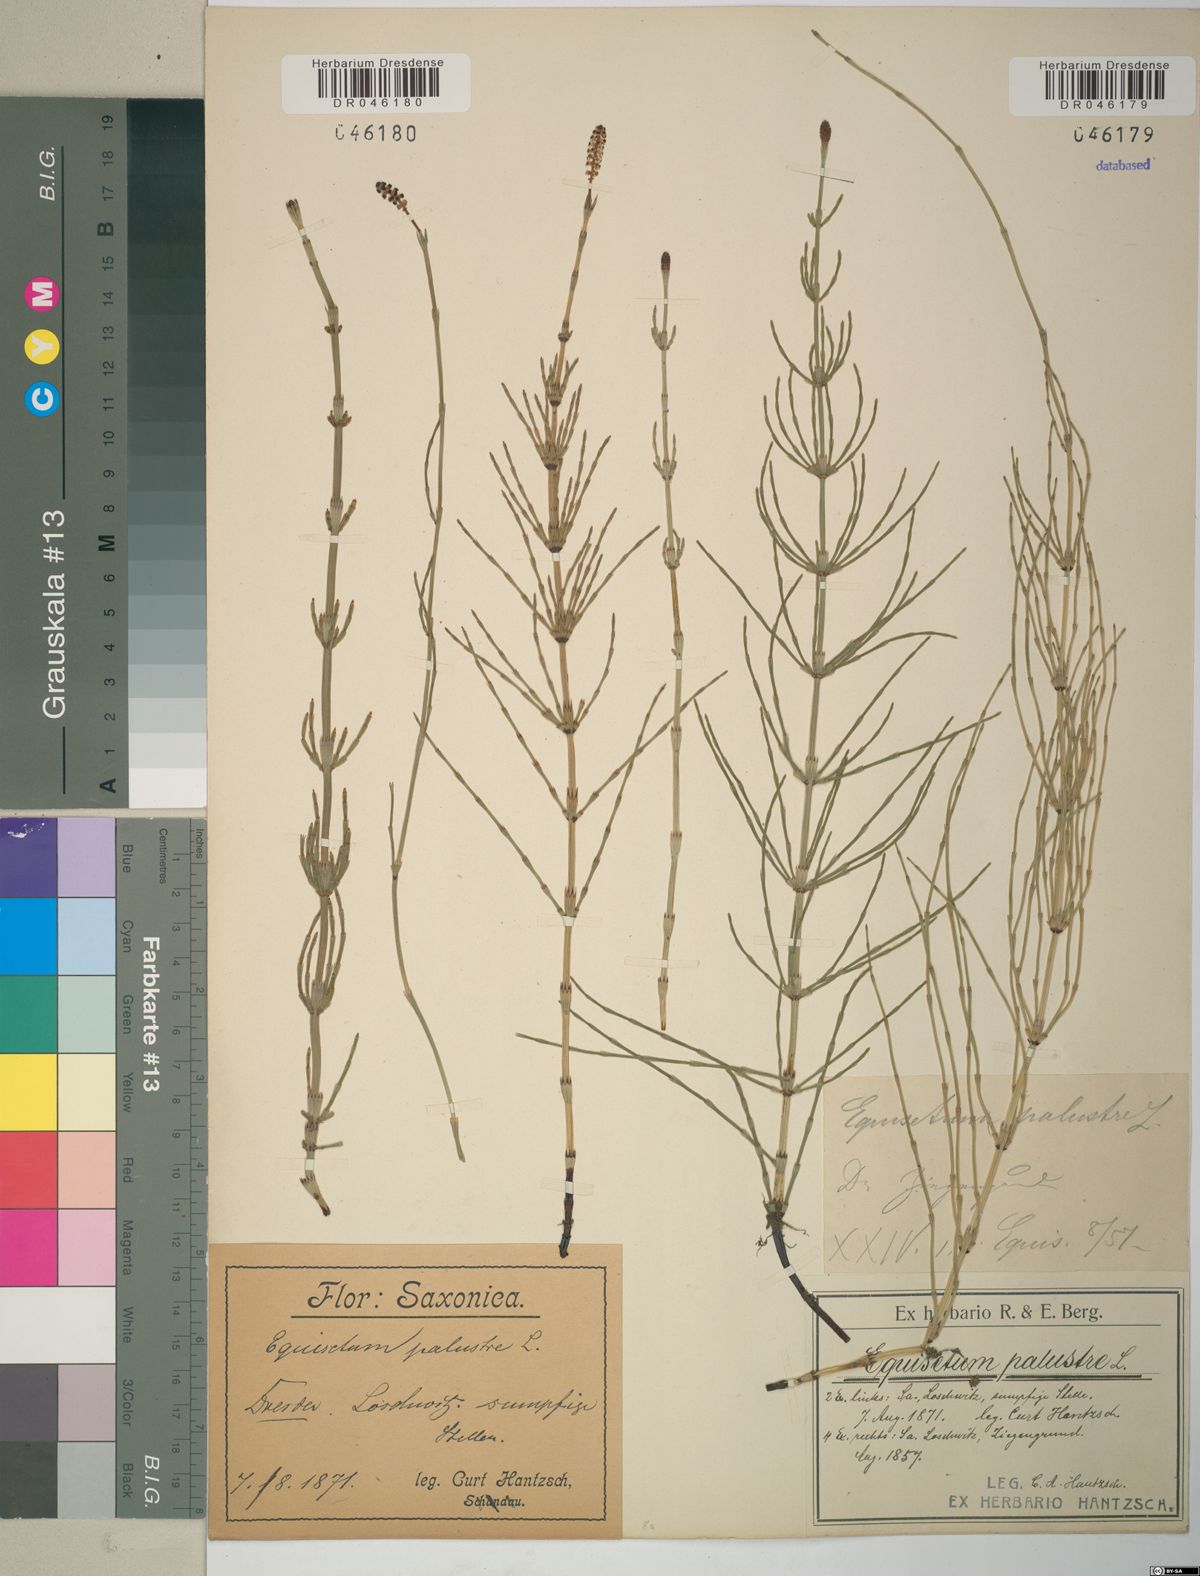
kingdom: Plantae
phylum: Tracheophyta
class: Polypodiopsida
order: Equisetales
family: Equisetaceae
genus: Equisetum
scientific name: Equisetum palustre
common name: Marsh horsetail
